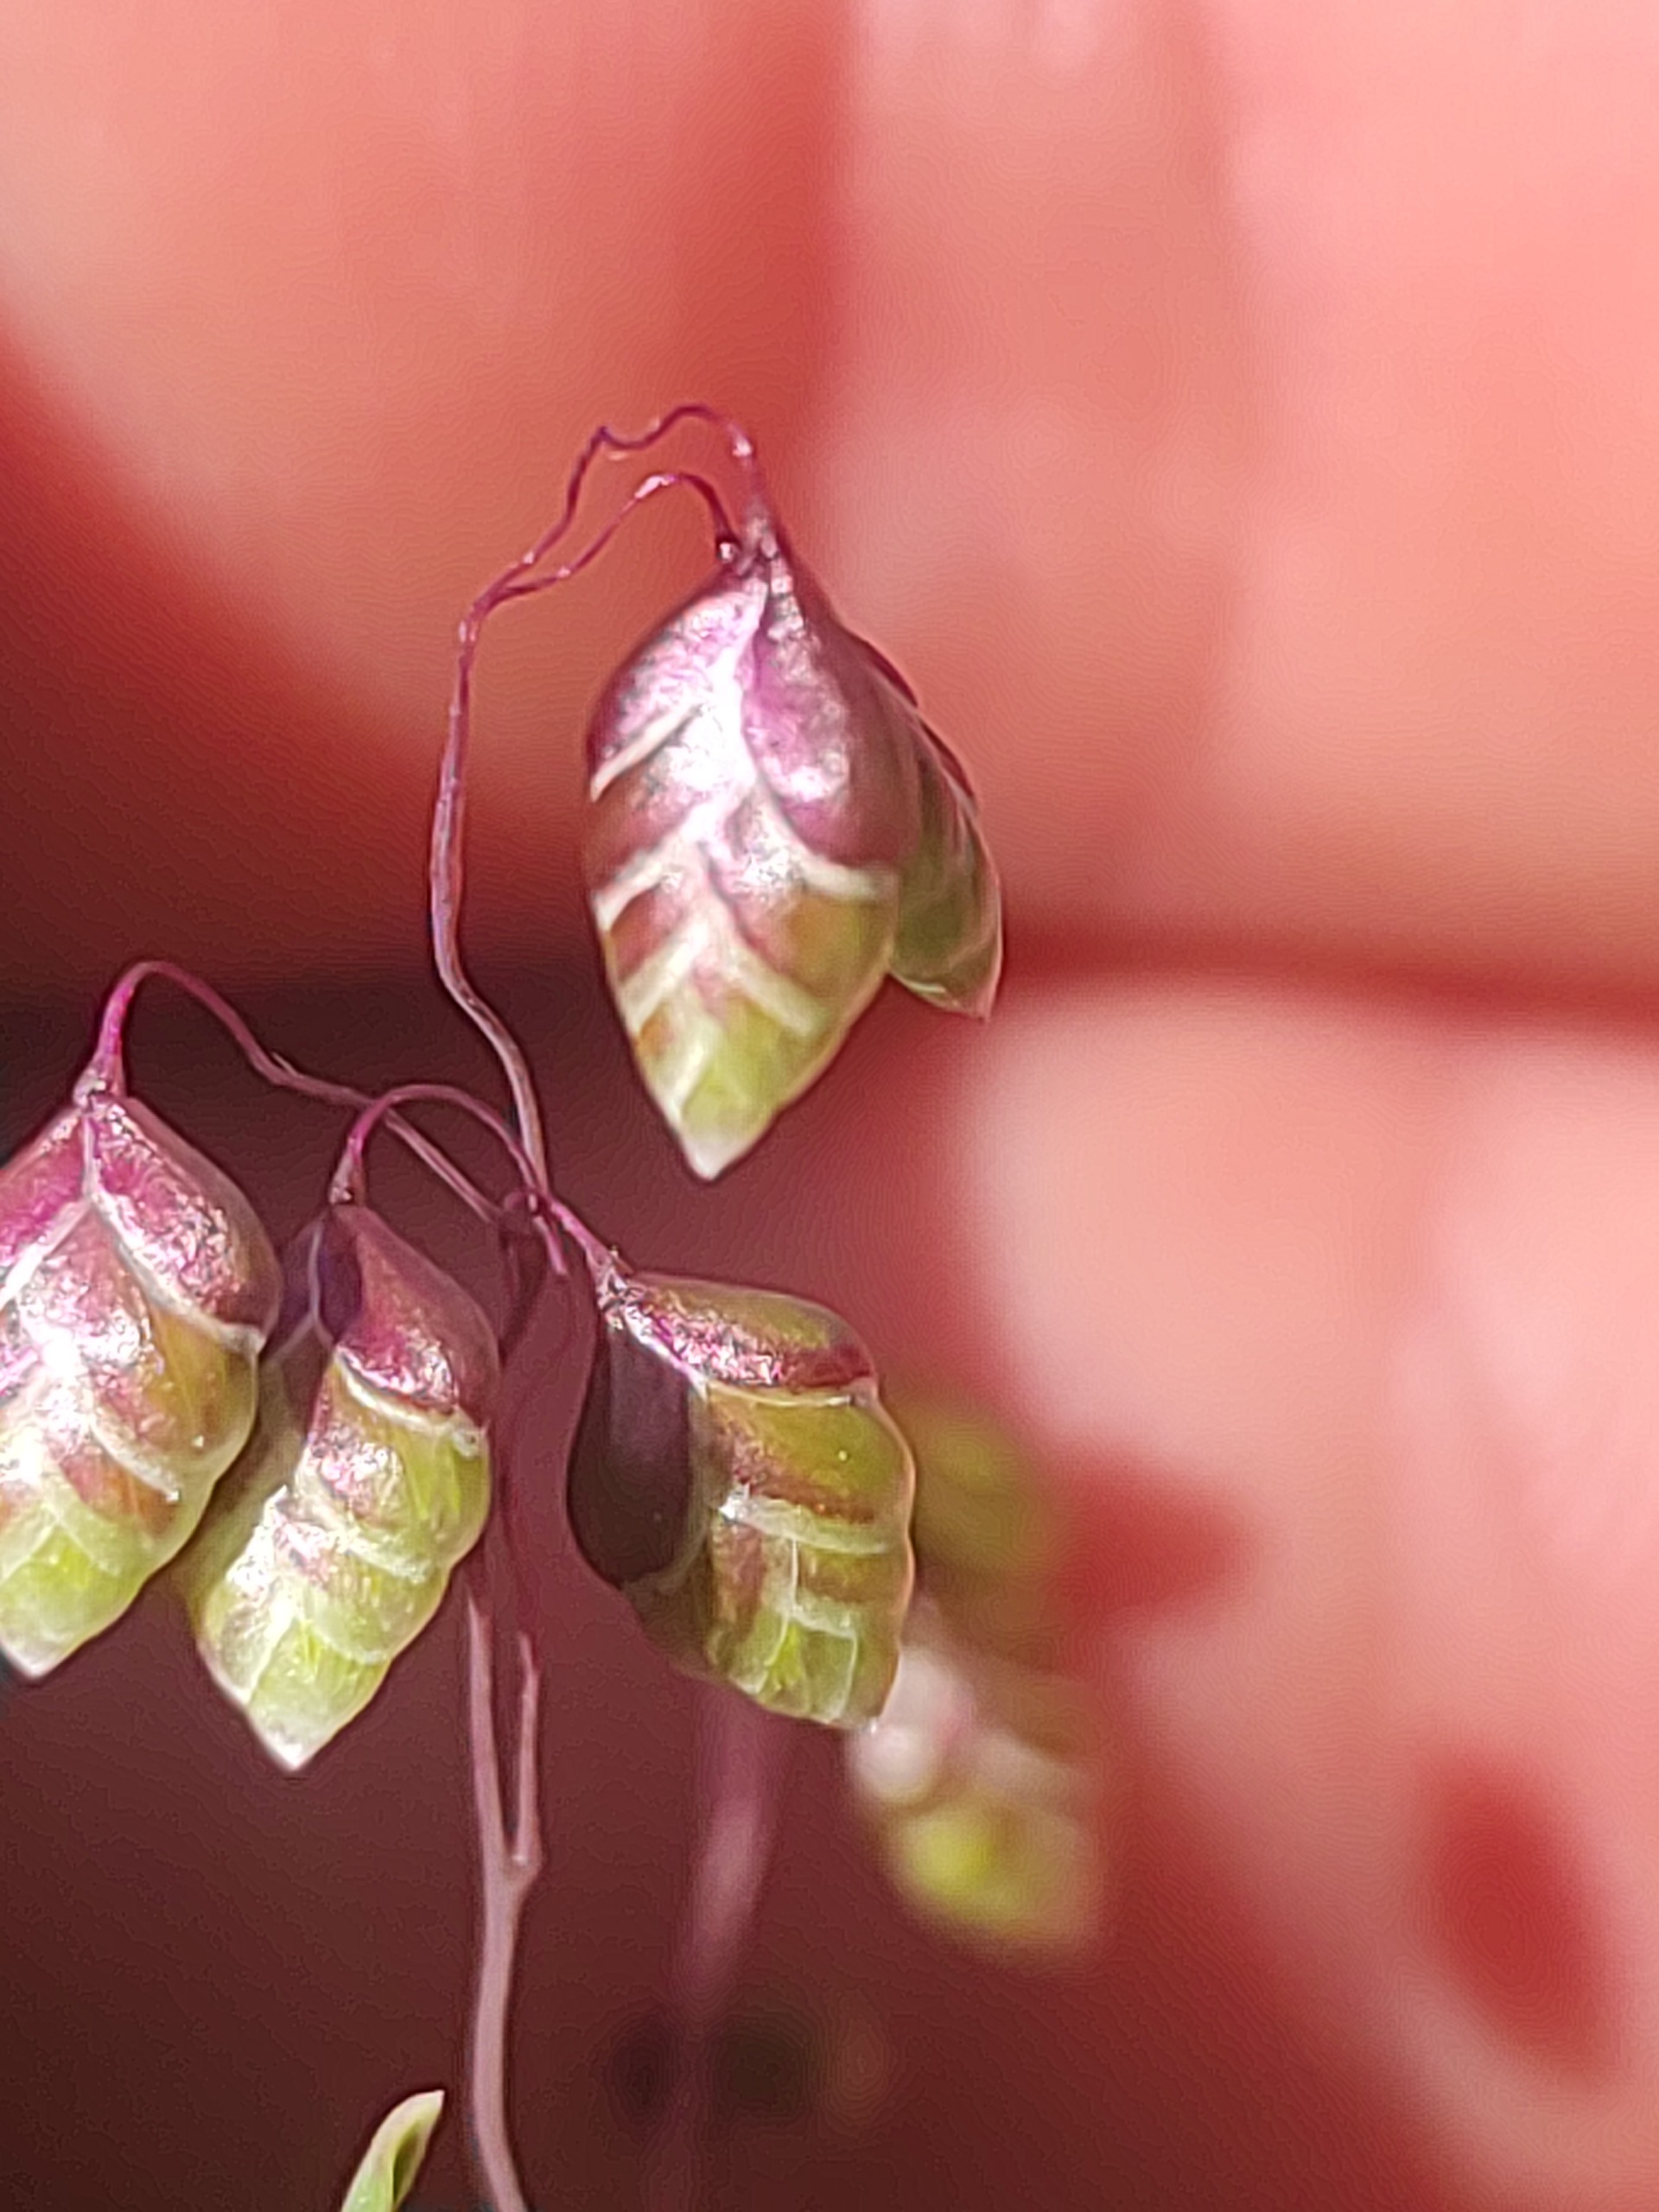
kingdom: Plantae
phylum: Tracheophyta
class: Liliopsida
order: Poales
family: Poaceae
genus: Briza
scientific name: Briza media
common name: Hjertegræs
